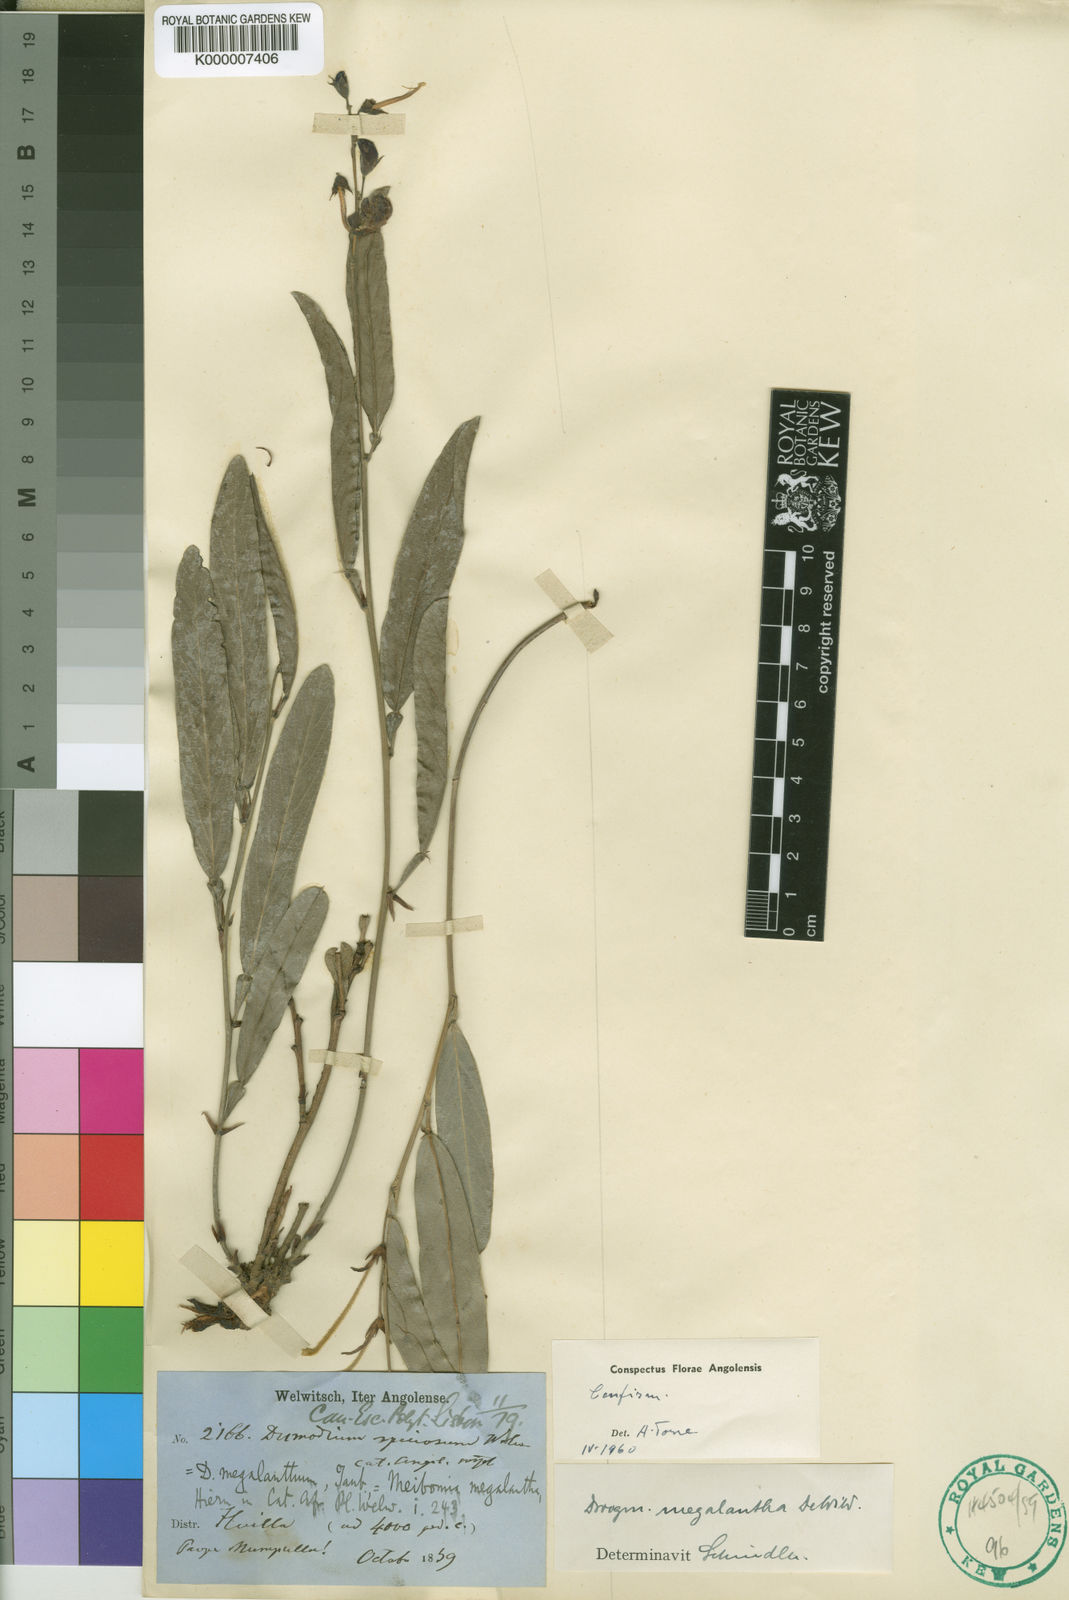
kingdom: Plantae
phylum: Tracheophyta
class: Magnoliopsida
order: Fabales
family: Fabaceae
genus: Droogmansia
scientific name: Droogmansia megalantha
